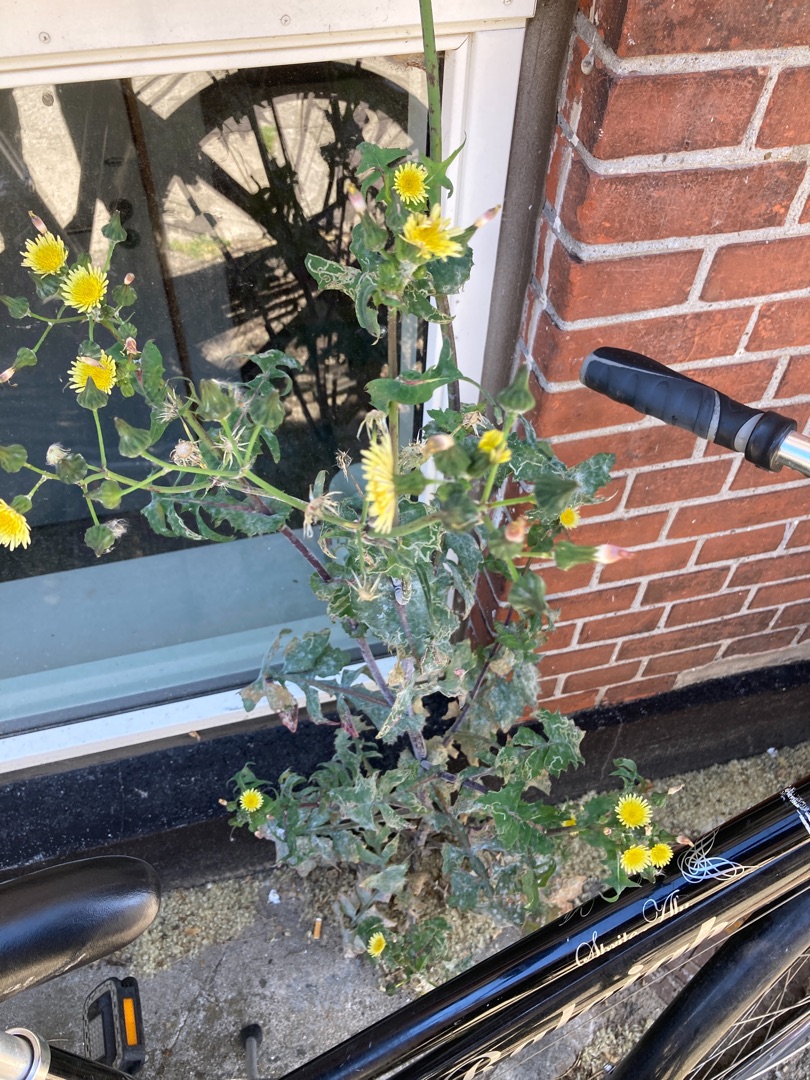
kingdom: Plantae
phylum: Tracheophyta
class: Magnoliopsida
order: Asterales
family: Asteraceae
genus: Sonchus
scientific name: Sonchus oleraceus
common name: Almindelig svinemælk
